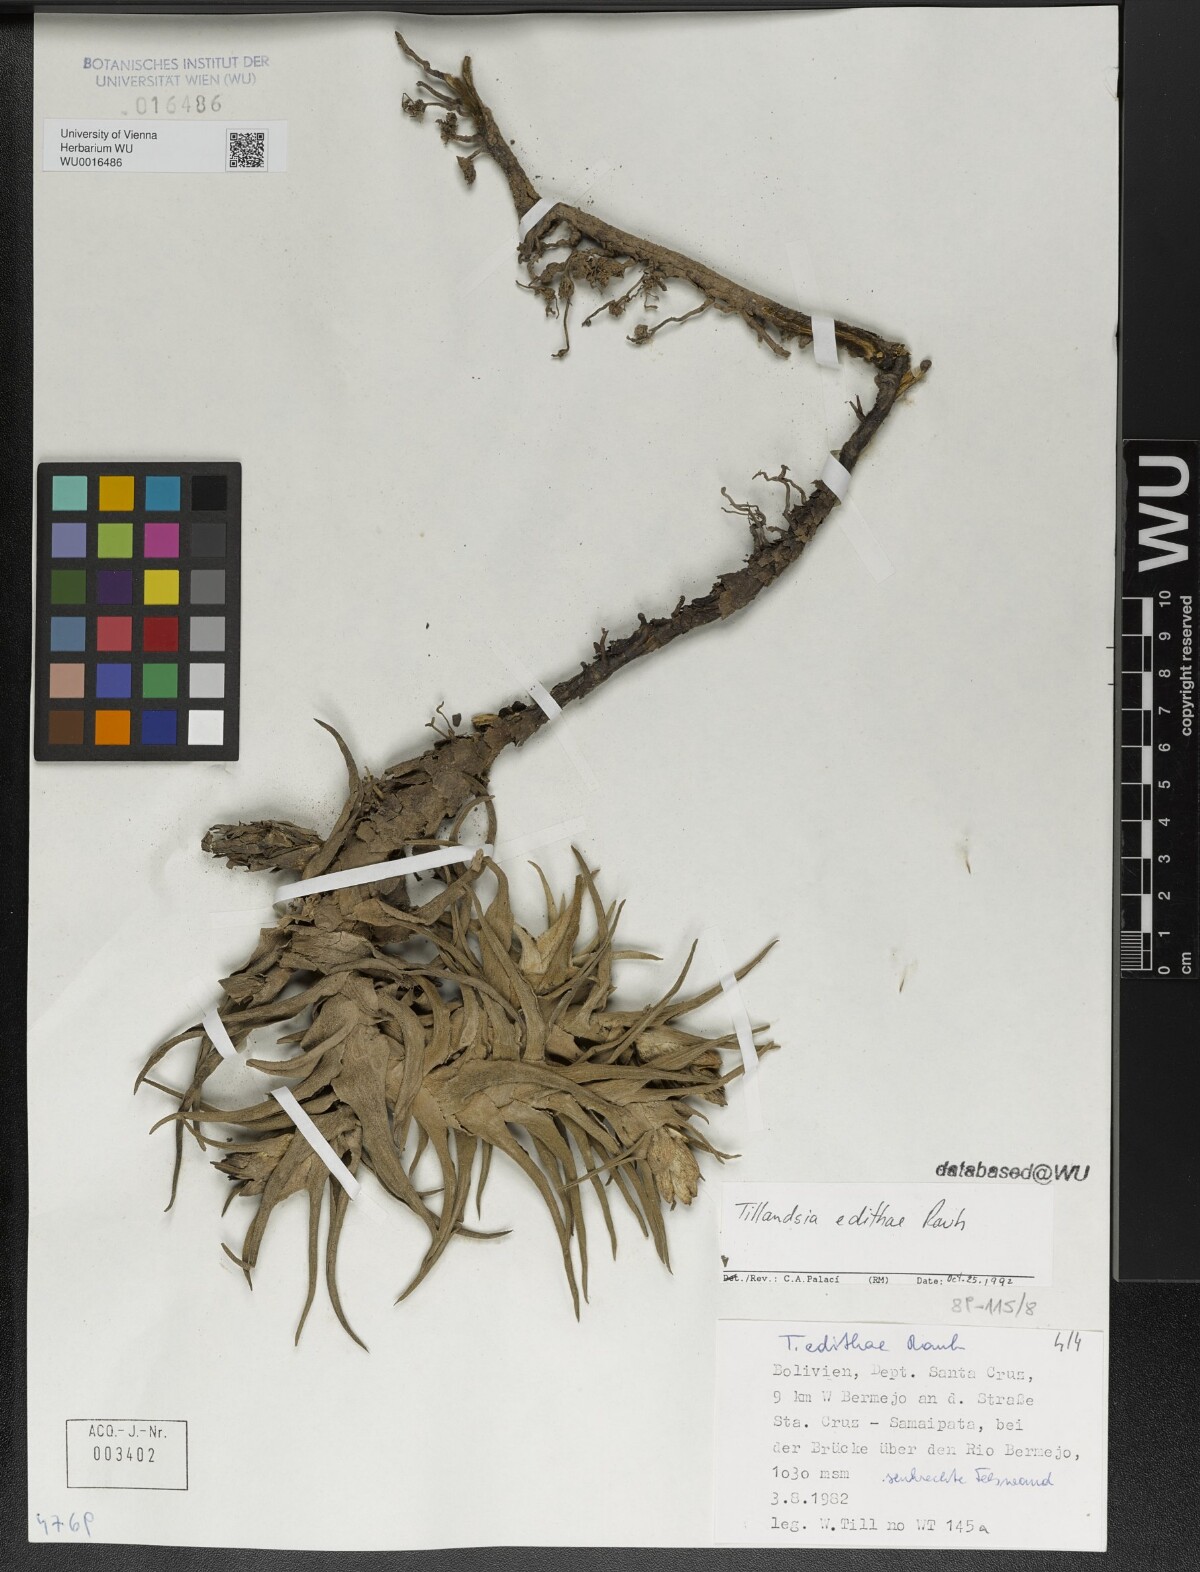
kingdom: Plantae
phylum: Tracheophyta
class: Liliopsida
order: Poales
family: Bromeliaceae
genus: Tillandsia
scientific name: Tillandsia edithae
